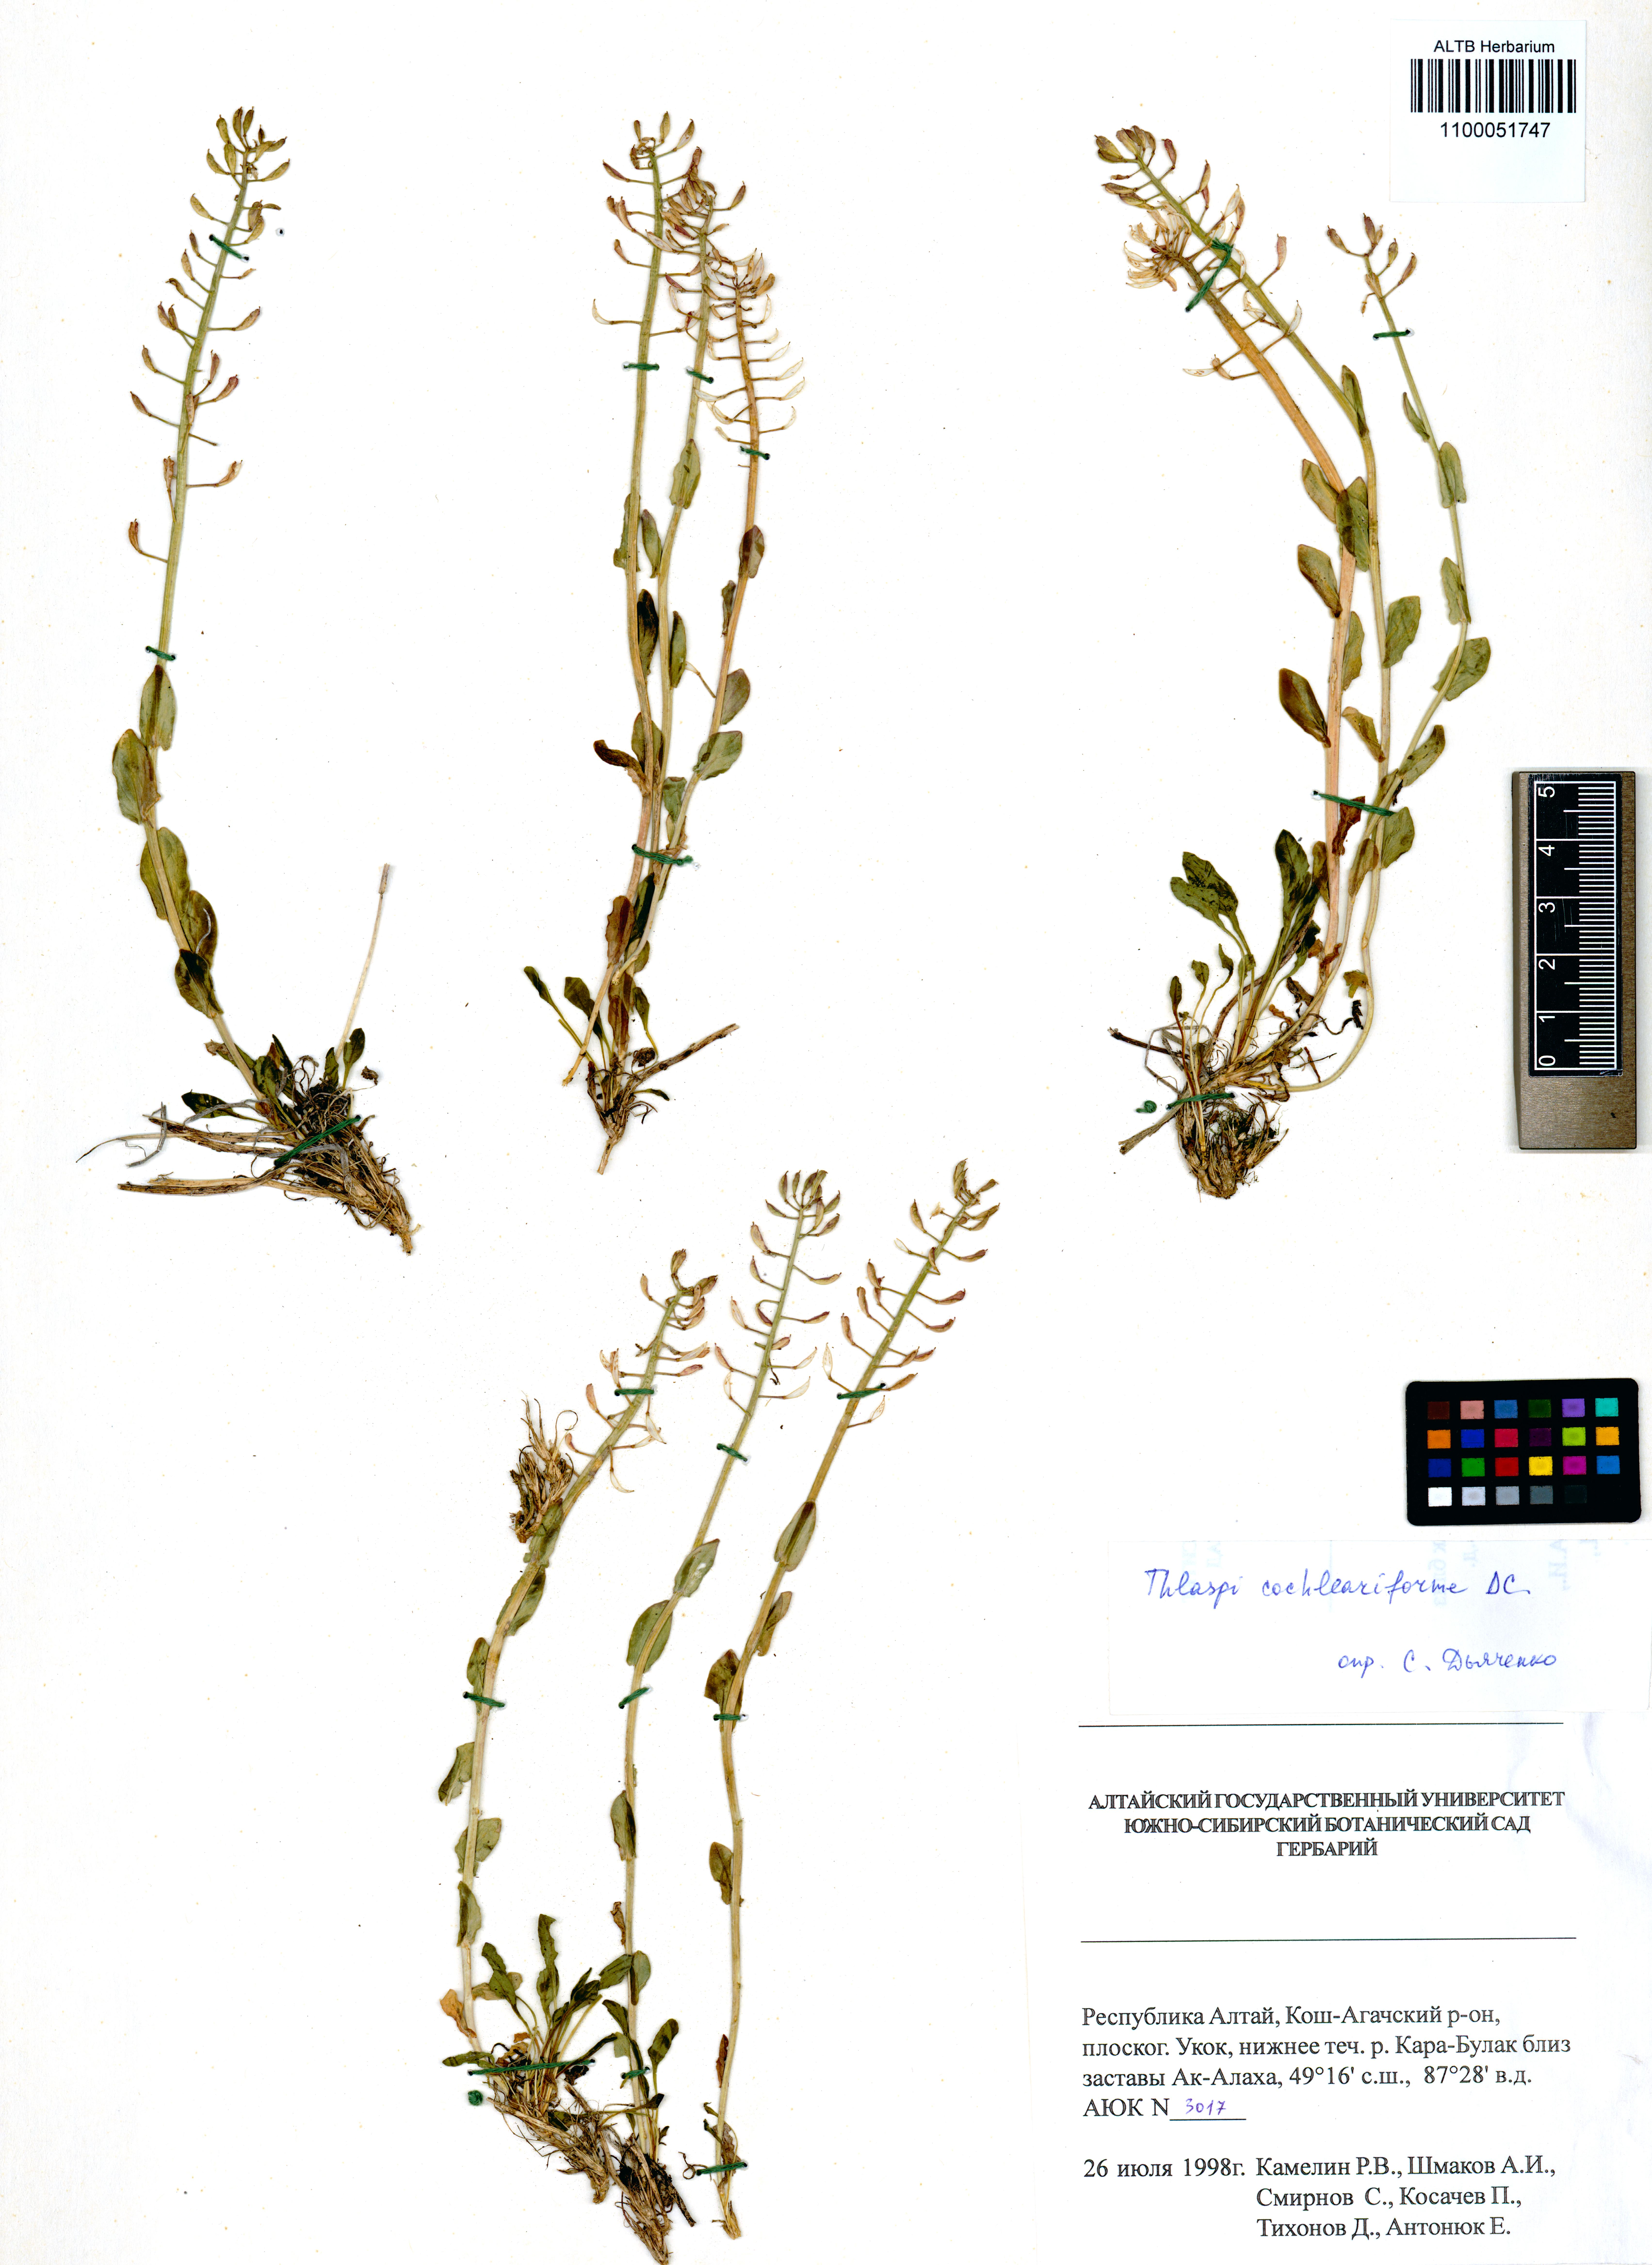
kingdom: Plantae
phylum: Tracheophyta
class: Magnoliopsida
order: Brassicales
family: Brassicaceae
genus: Noccaea
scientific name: Noccaea thlaspidioides
